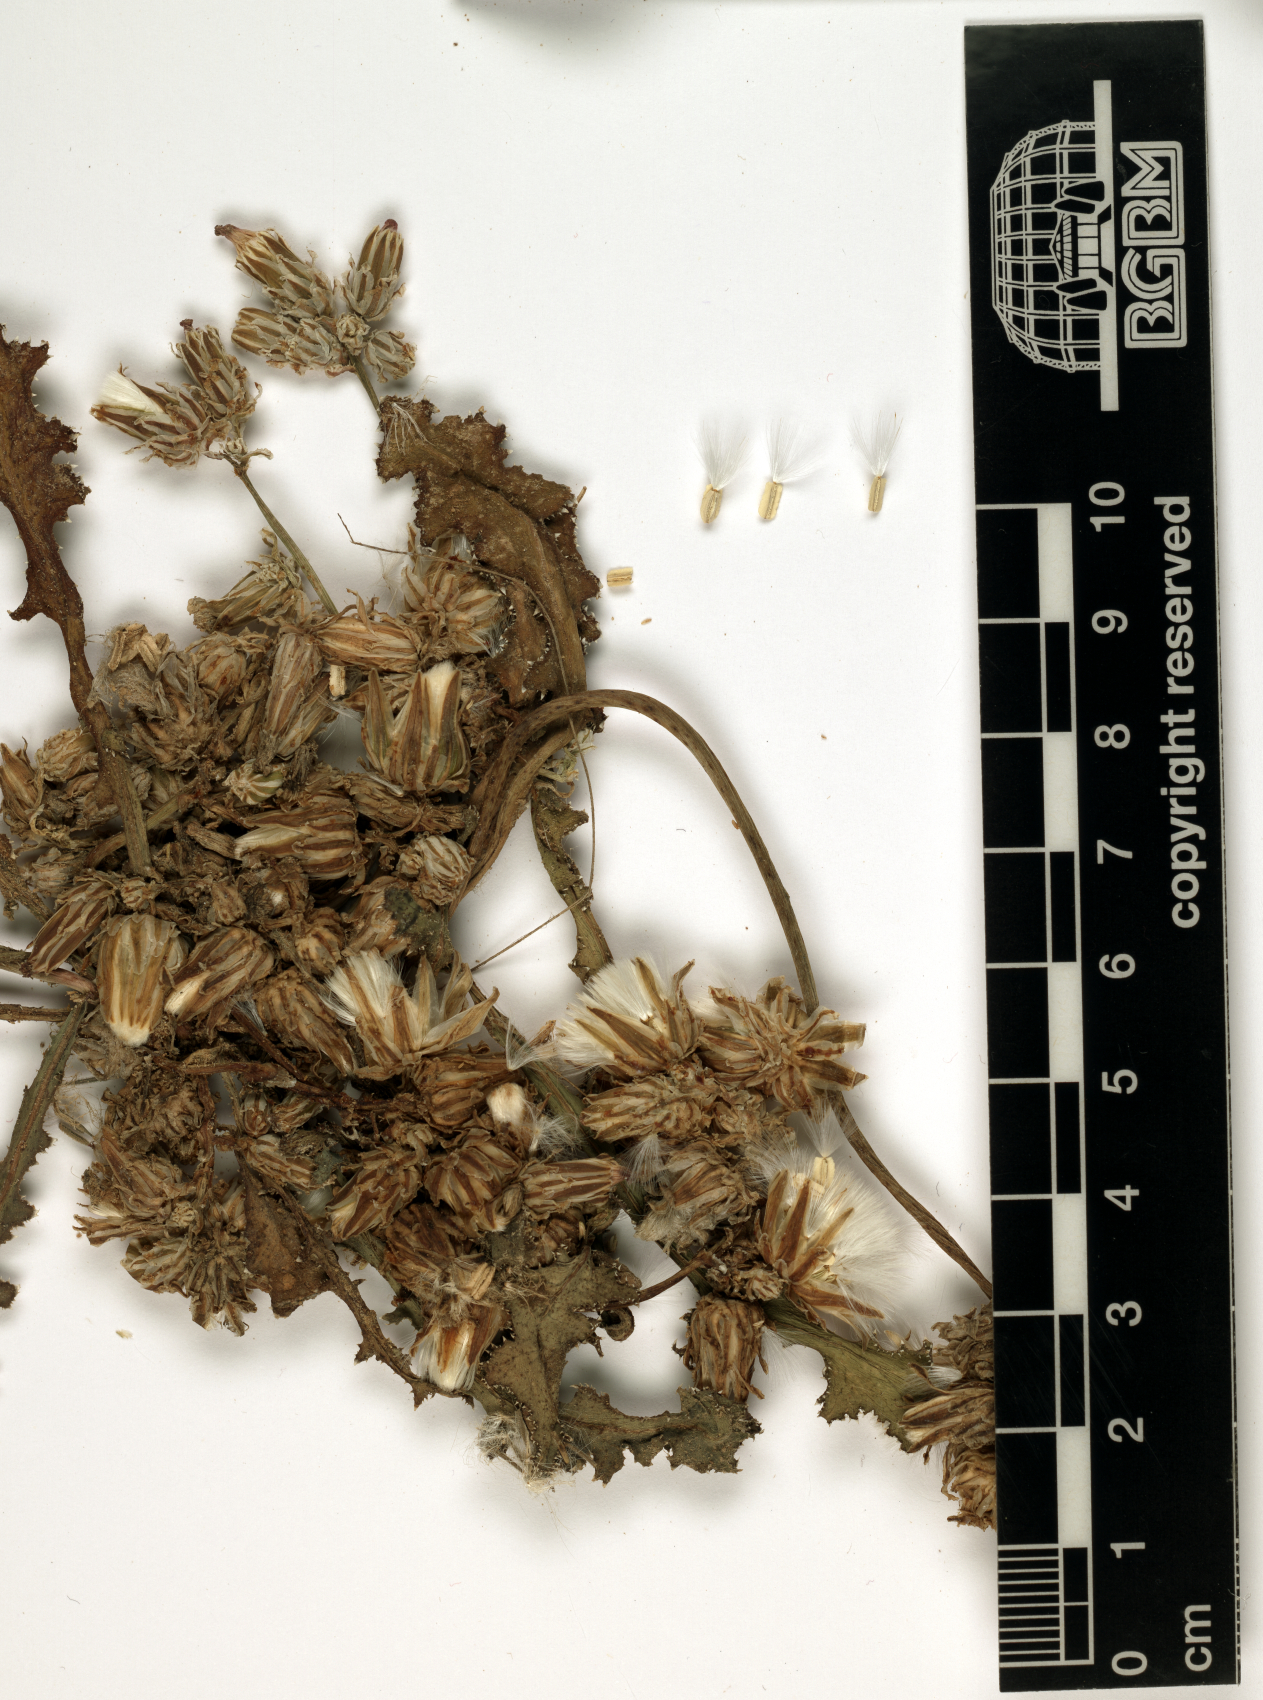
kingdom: Plantae
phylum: Tracheophyta
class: Magnoliopsida
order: Asterales
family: Asteraceae
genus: Launaea
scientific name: Launaea capitata
